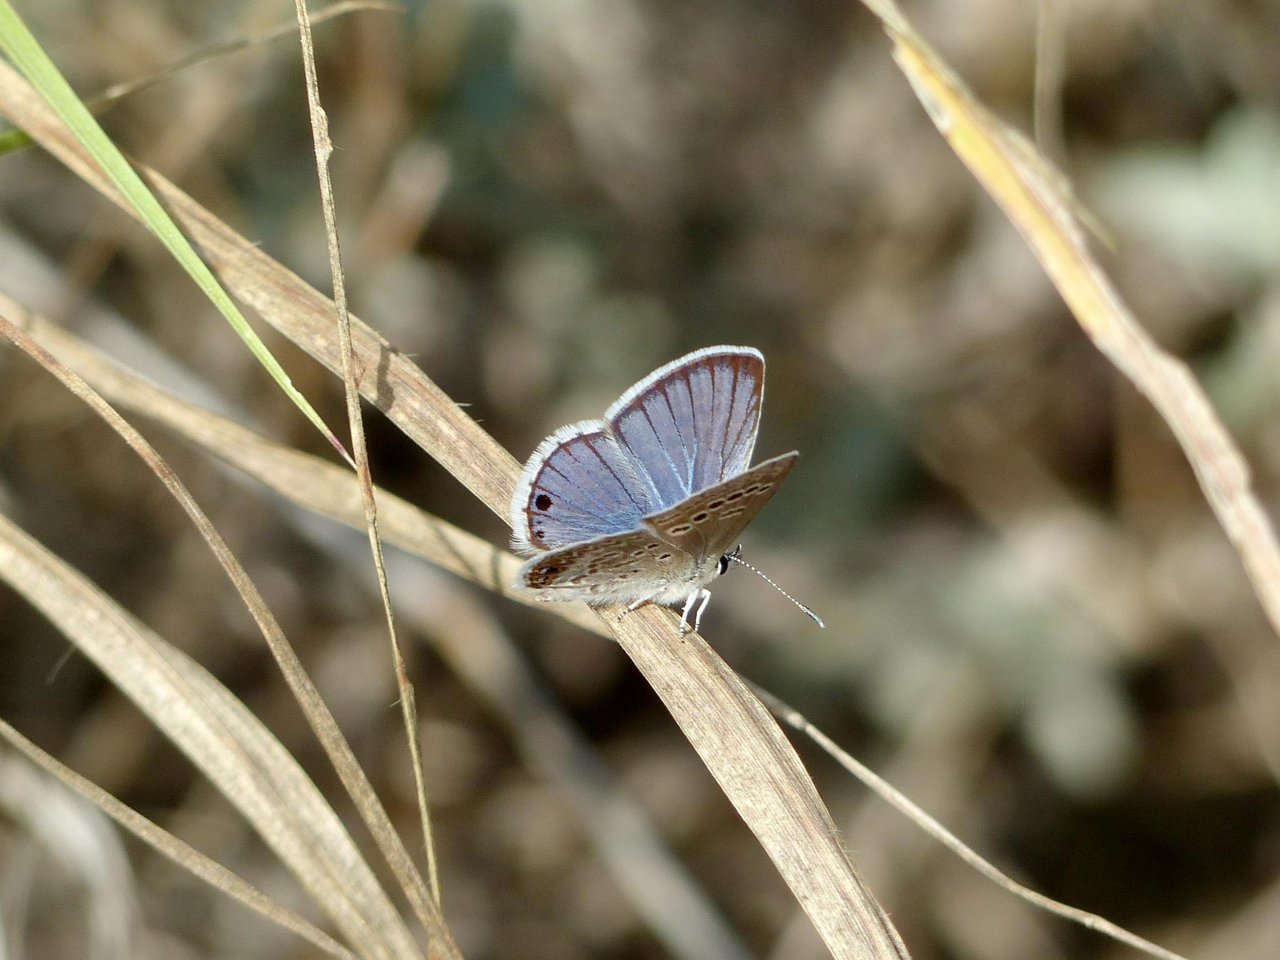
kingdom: Animalia
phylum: Arthropoda
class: Insecta
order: Lepidoptera
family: Lycaenidae
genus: Echinargus
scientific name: Echinargus isola
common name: Reakirt's Blue
